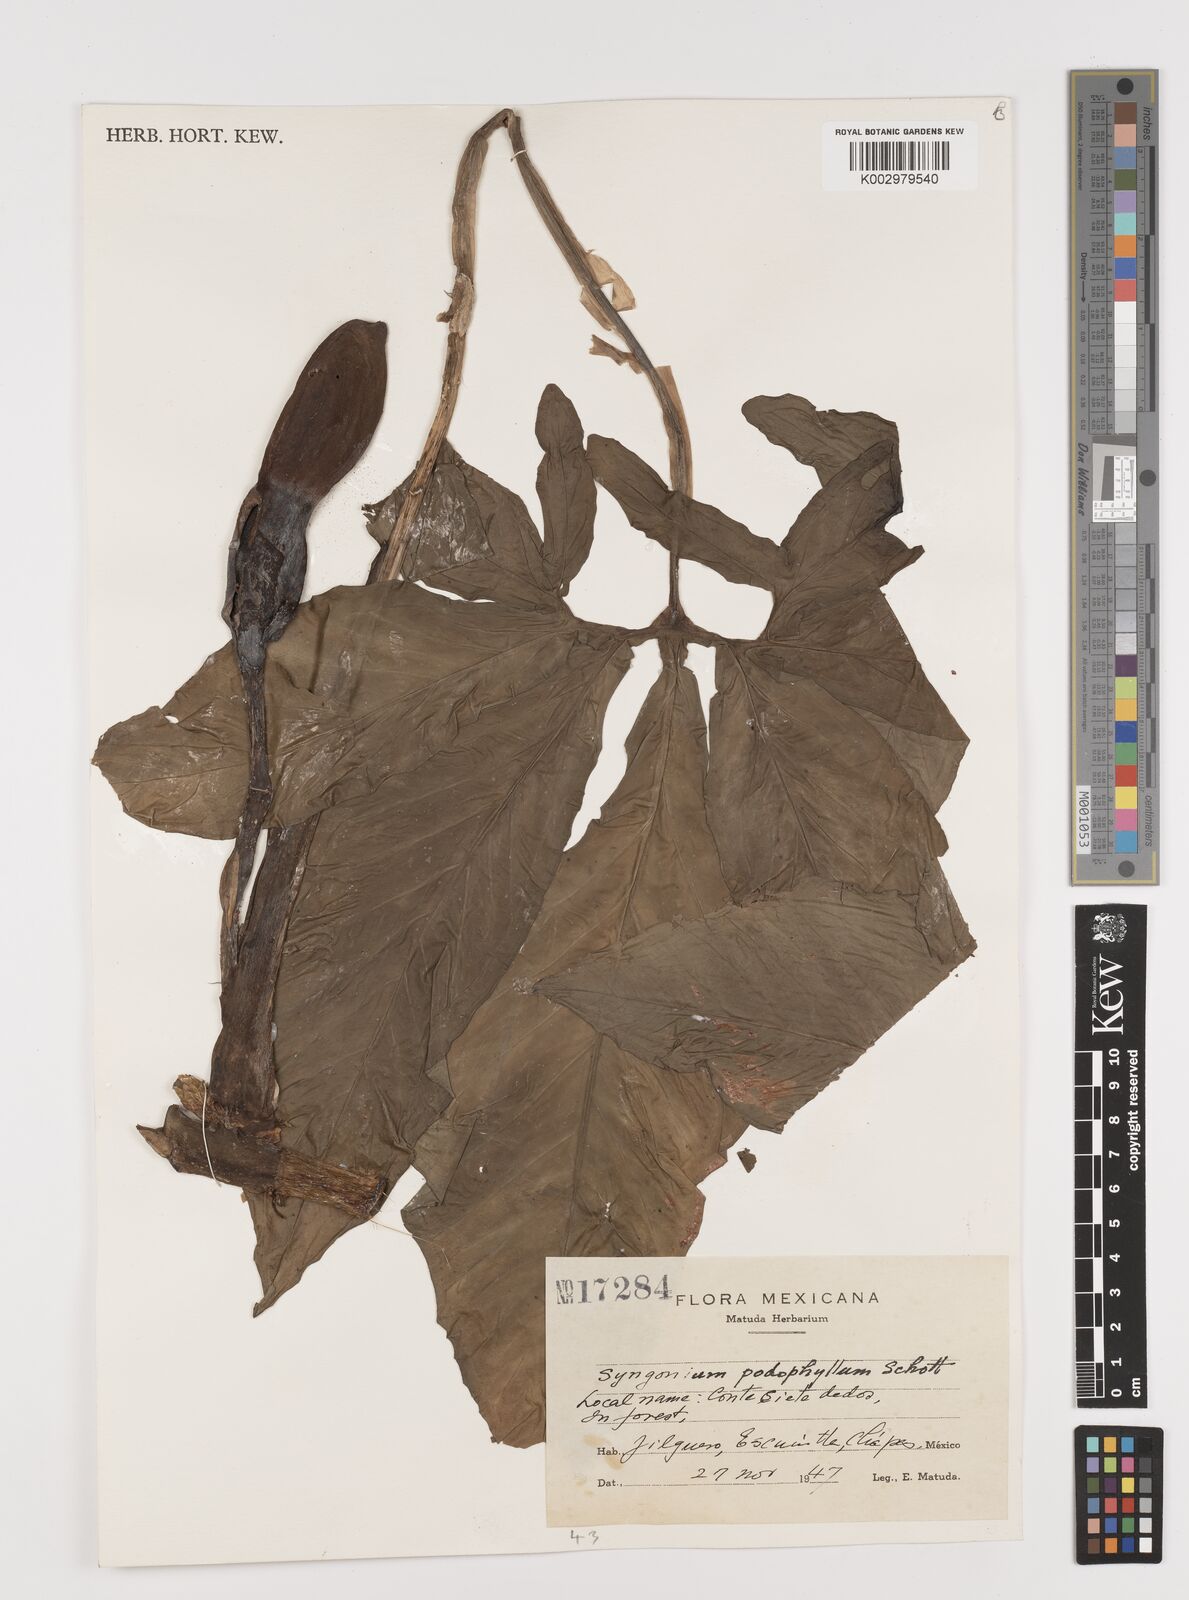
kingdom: Plantae
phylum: Tracheophyta
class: Liliopsida
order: Alismatales
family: Araceae
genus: Syngonium
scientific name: Syngonium podophyllum
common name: American evergreen
